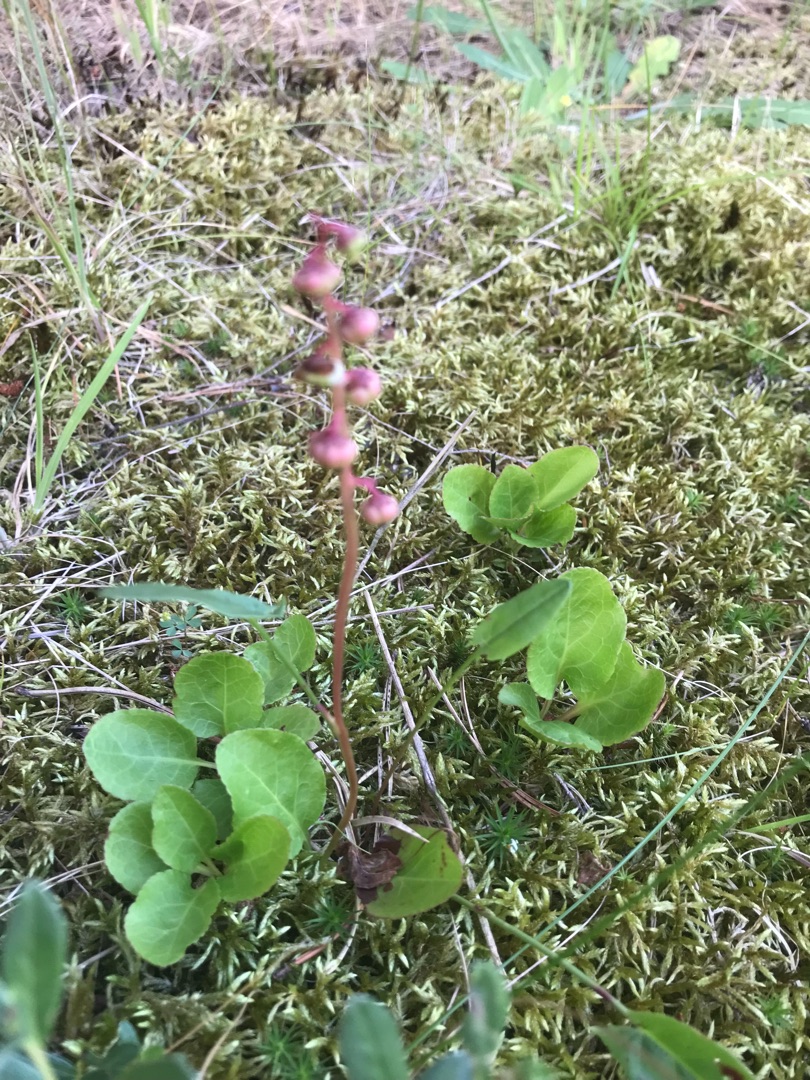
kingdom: Plantae
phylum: Tracheophyta
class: Magnoliopsida
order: Ericales
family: Ericaceae
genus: Pyrola
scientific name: Pyrola minor
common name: Liden vintergrøn
